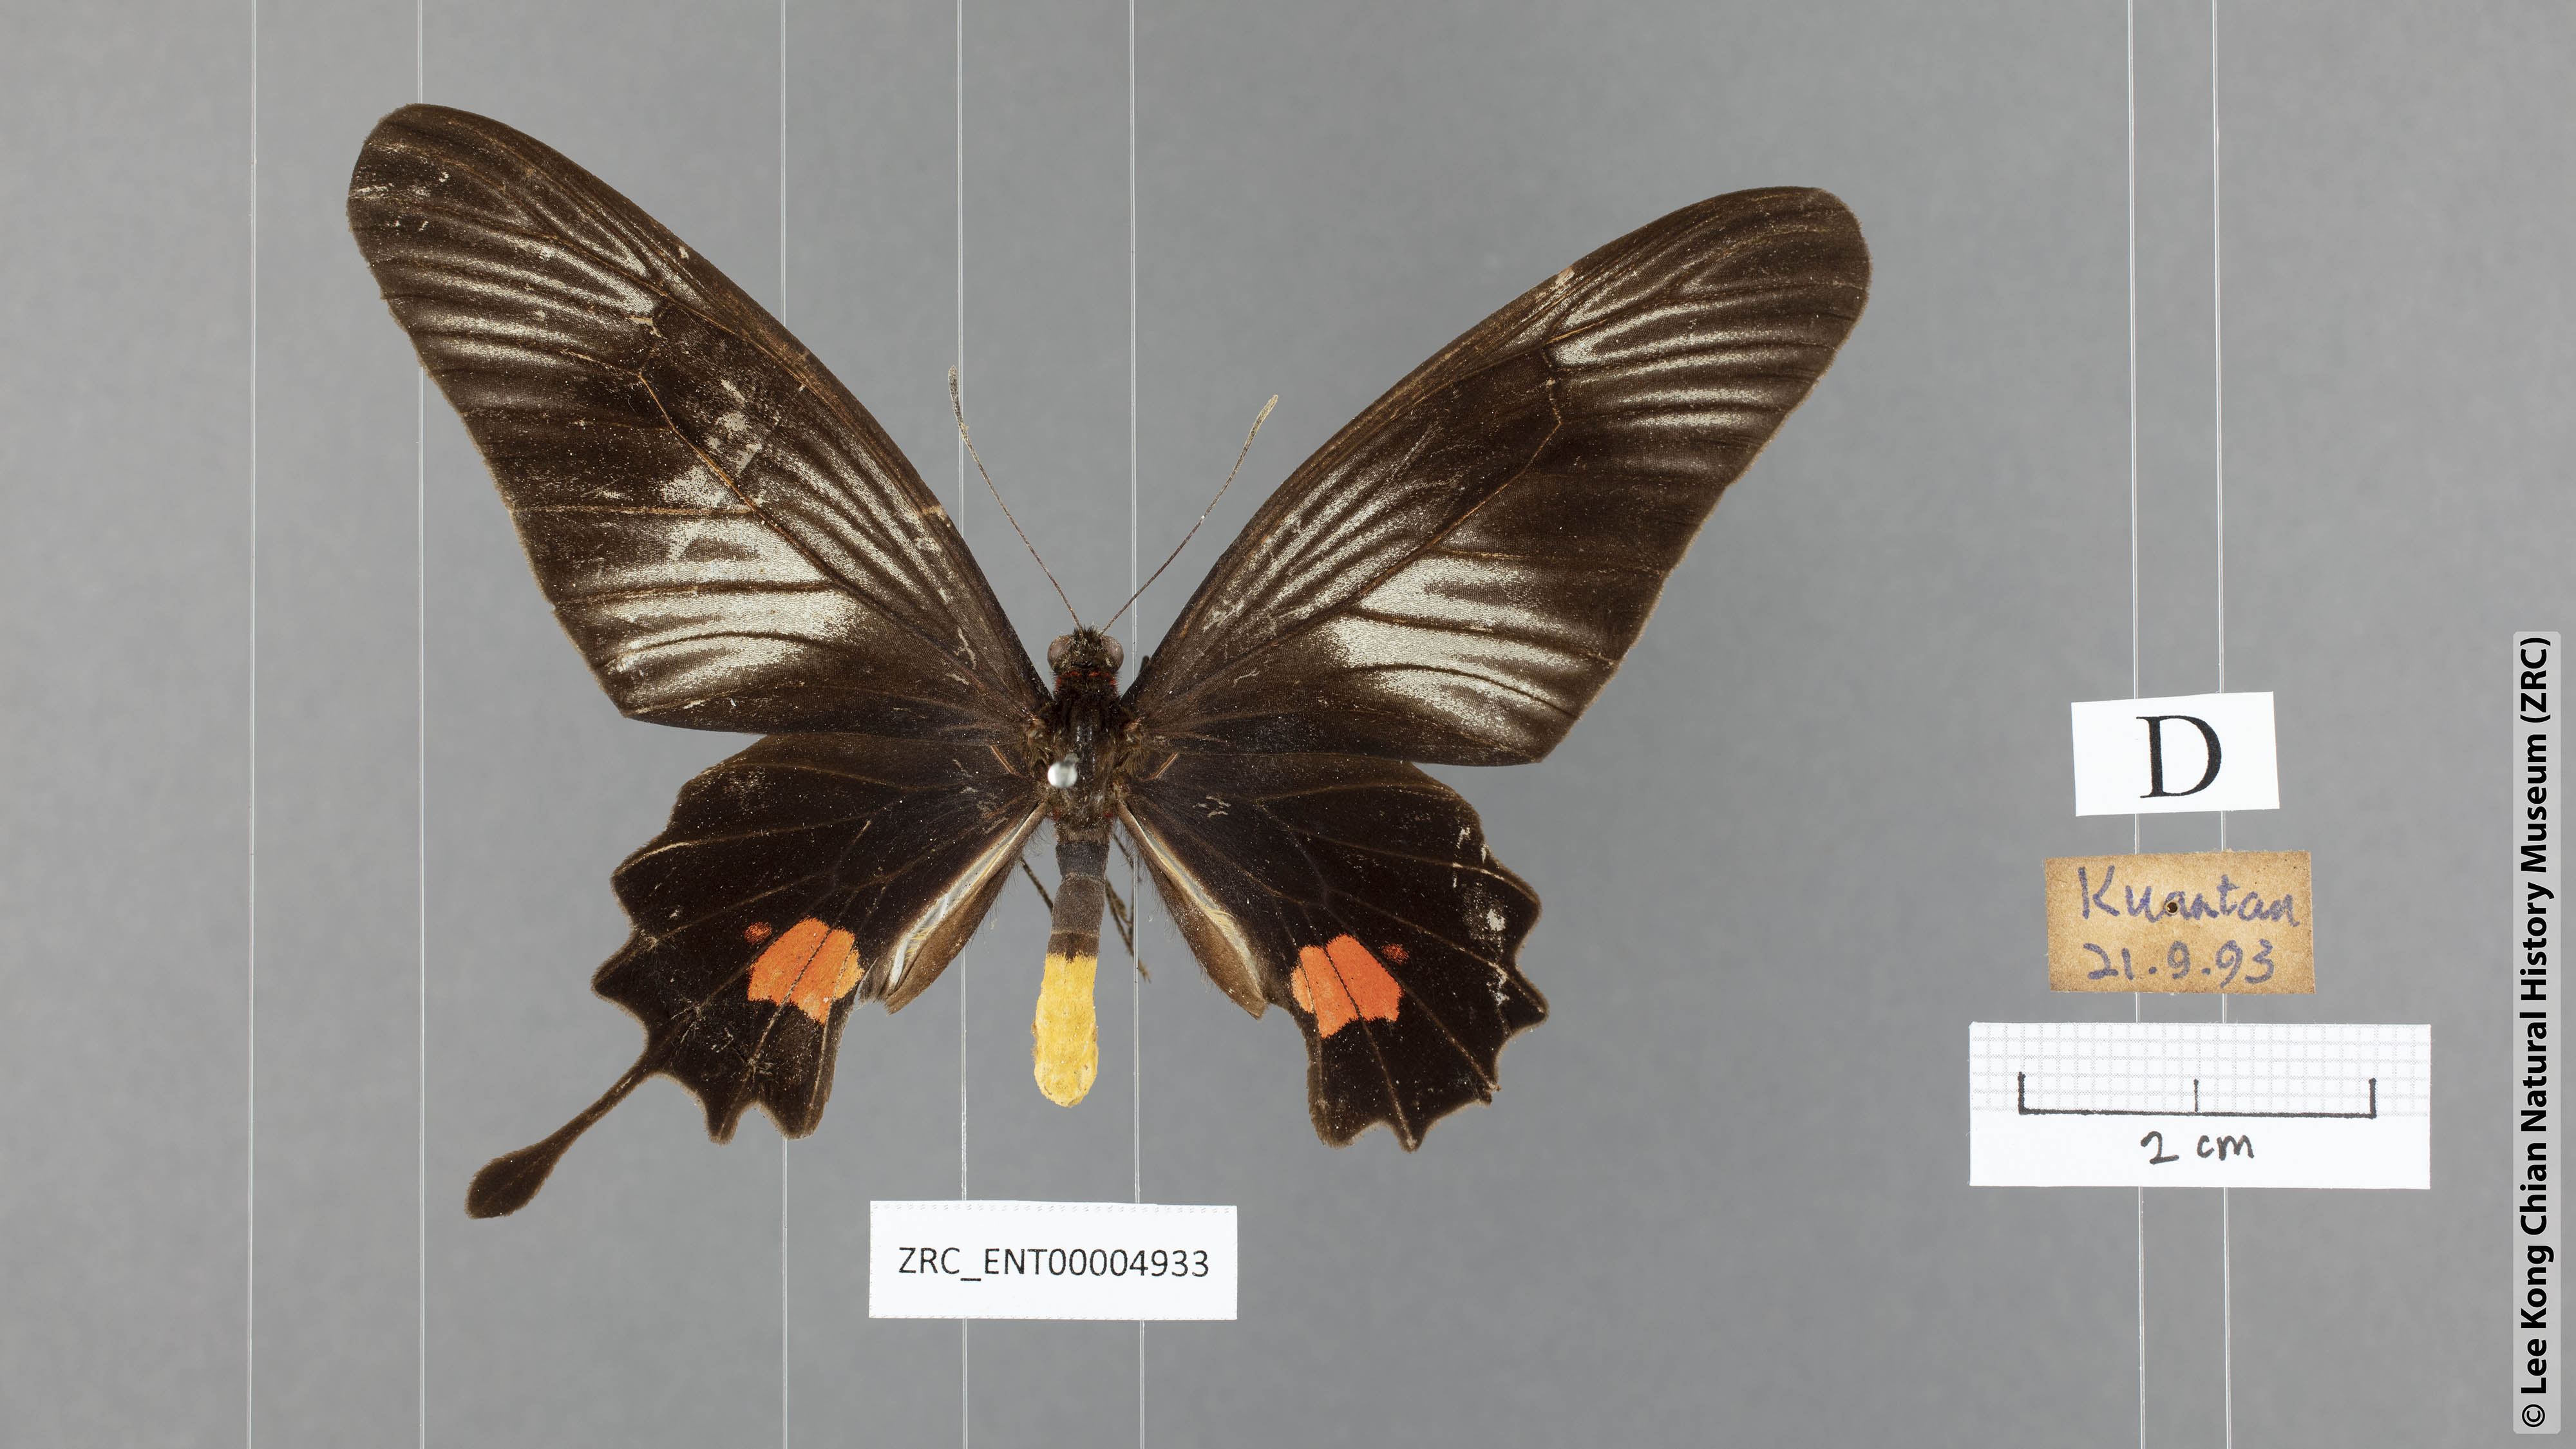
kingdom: Animalia
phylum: Arthropoda
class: Insecta
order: Lepidoptera
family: Papilionidae
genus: Losaria
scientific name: Losaria neptunus
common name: Yellow-bodied clubtail
